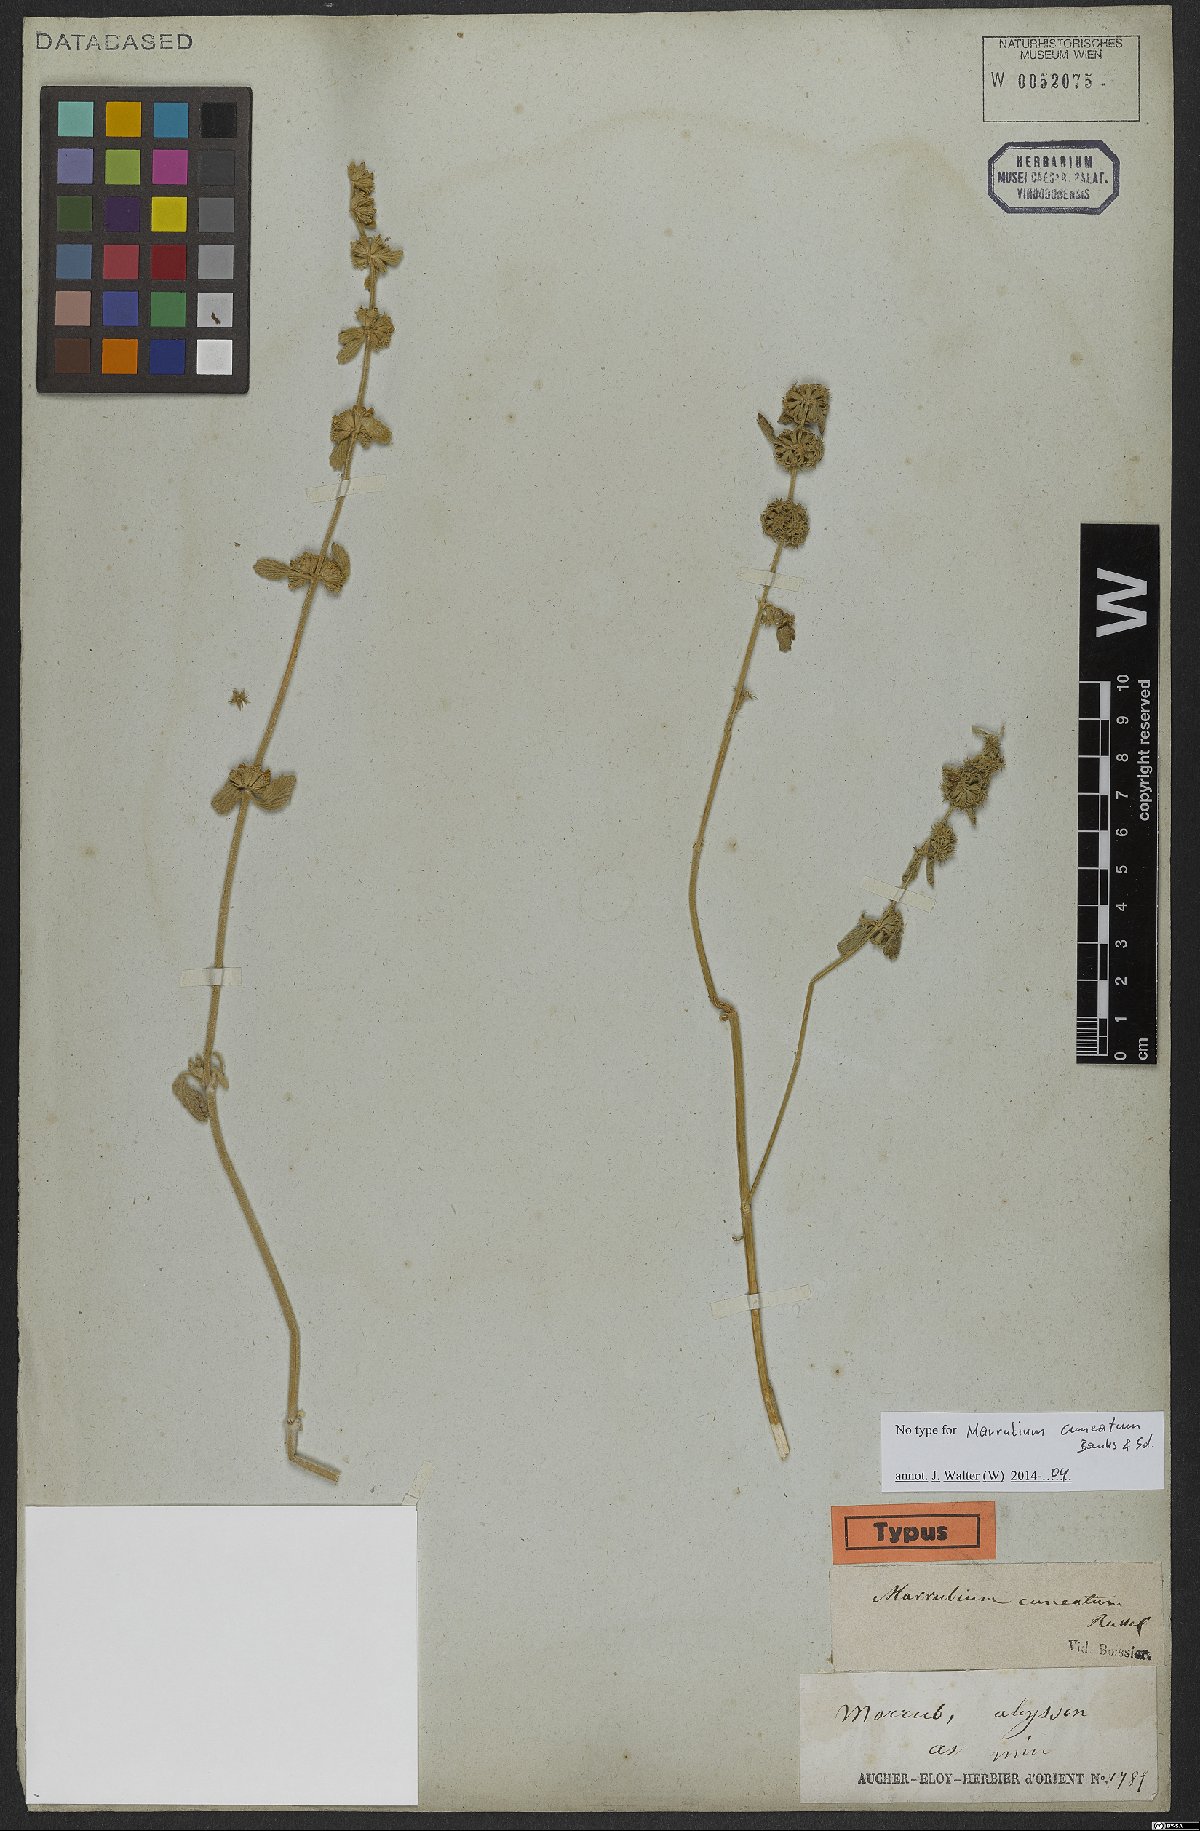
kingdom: Plantae
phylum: Tracheophyta
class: Magnoliopsida
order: Lamiales
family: Lamiaceae
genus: Marrubium
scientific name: Marrubium cuneatum
